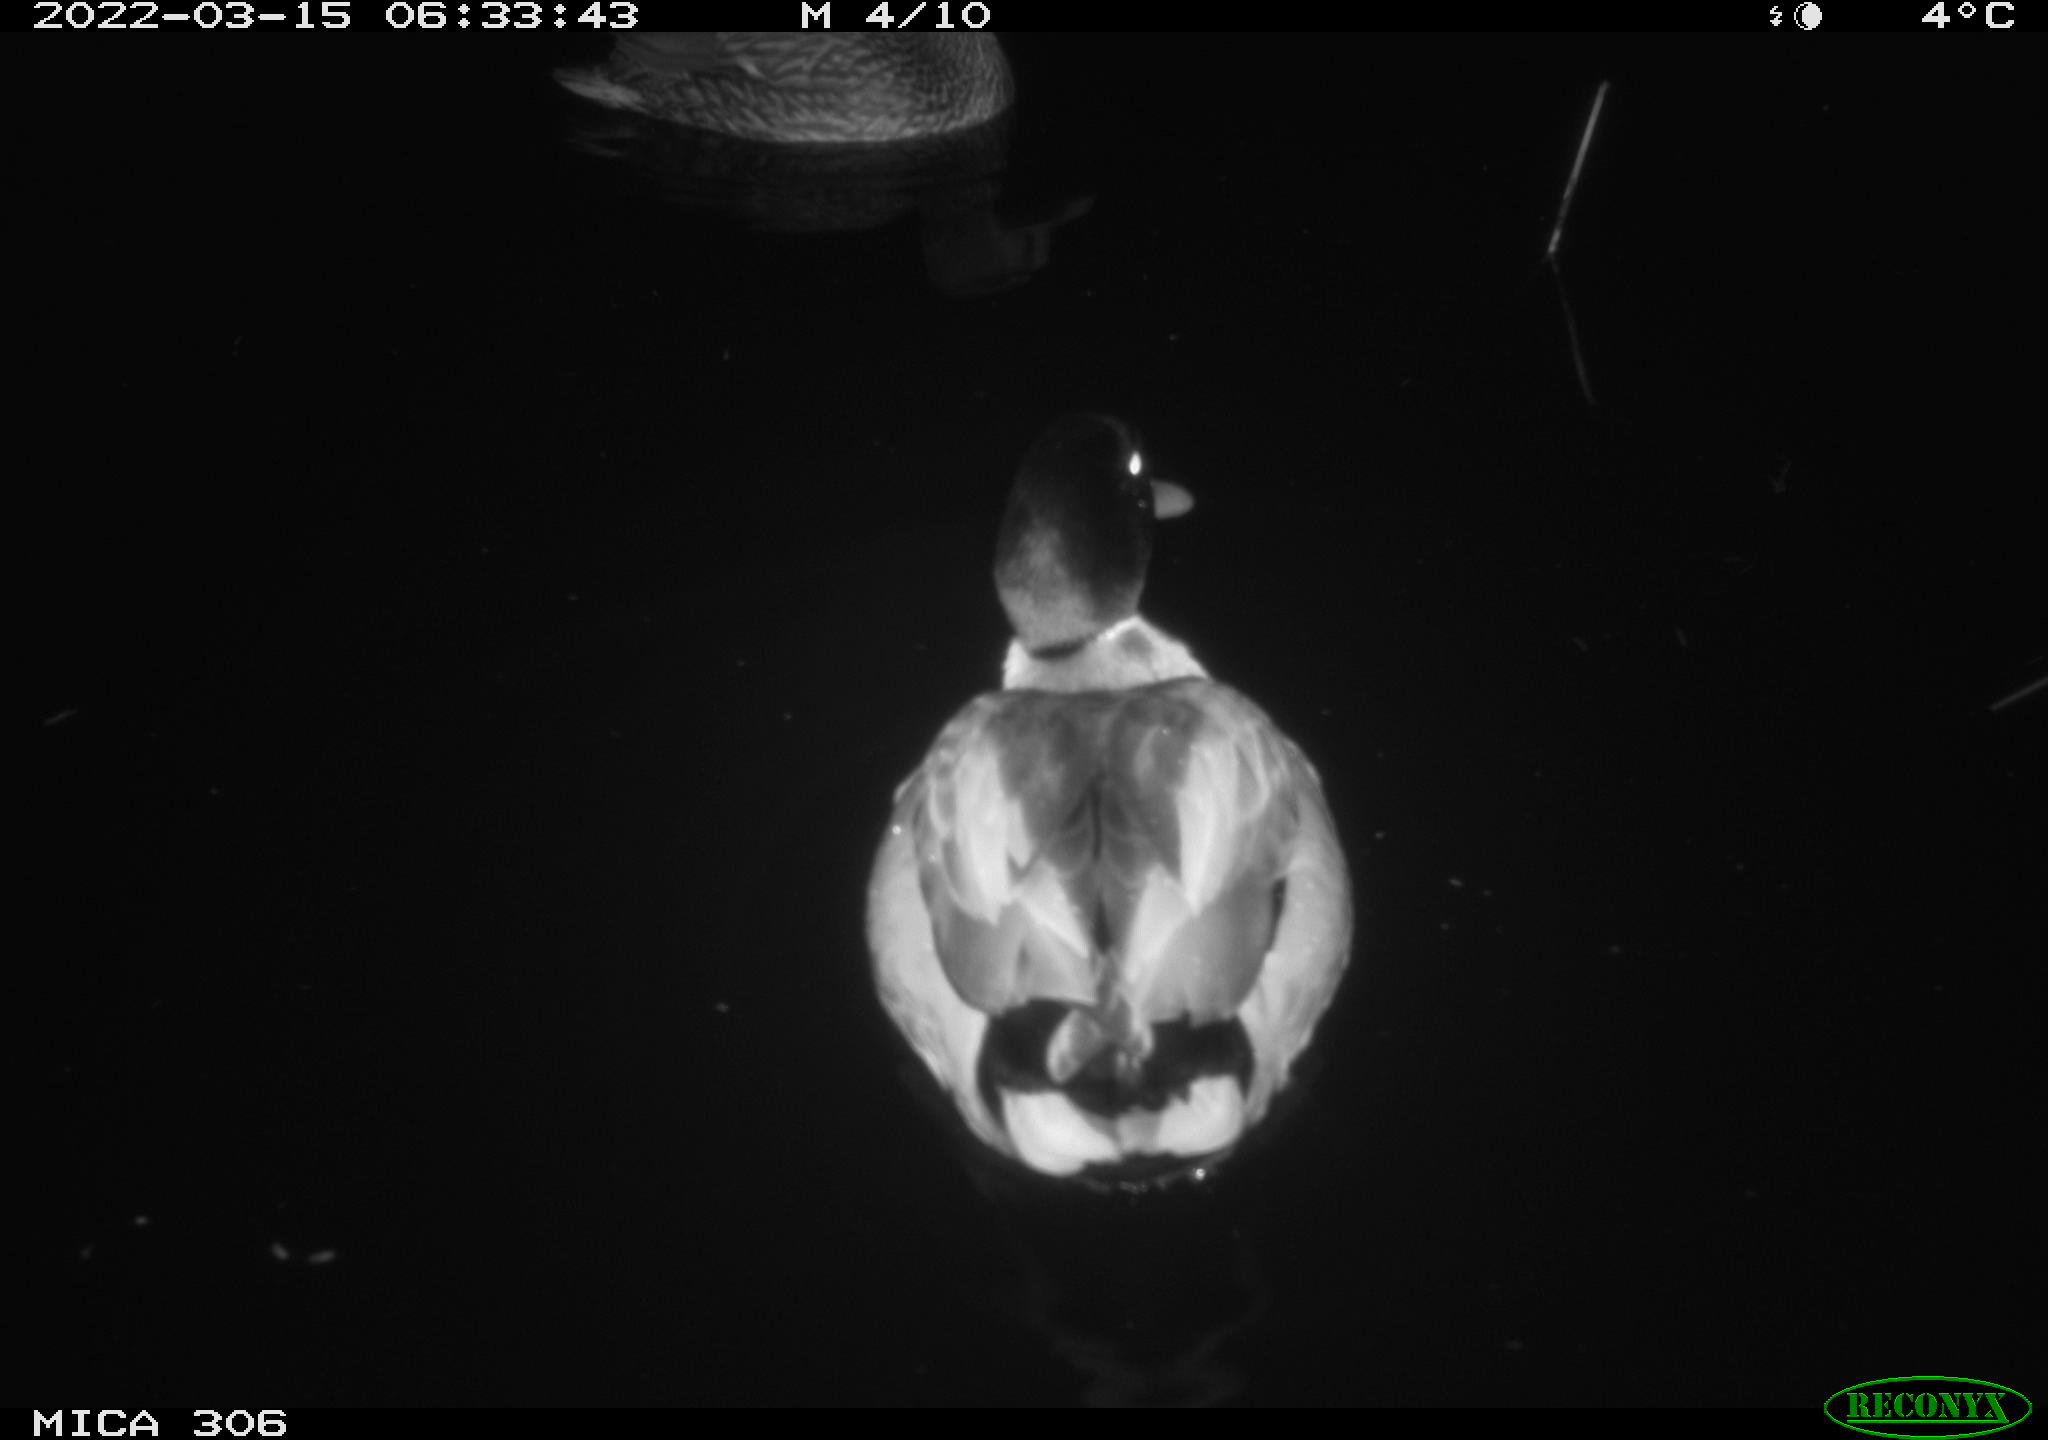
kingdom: Animalia
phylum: Chordata
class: Aves
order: Anseriformes
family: Anatidae
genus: Anas
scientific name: Anas
